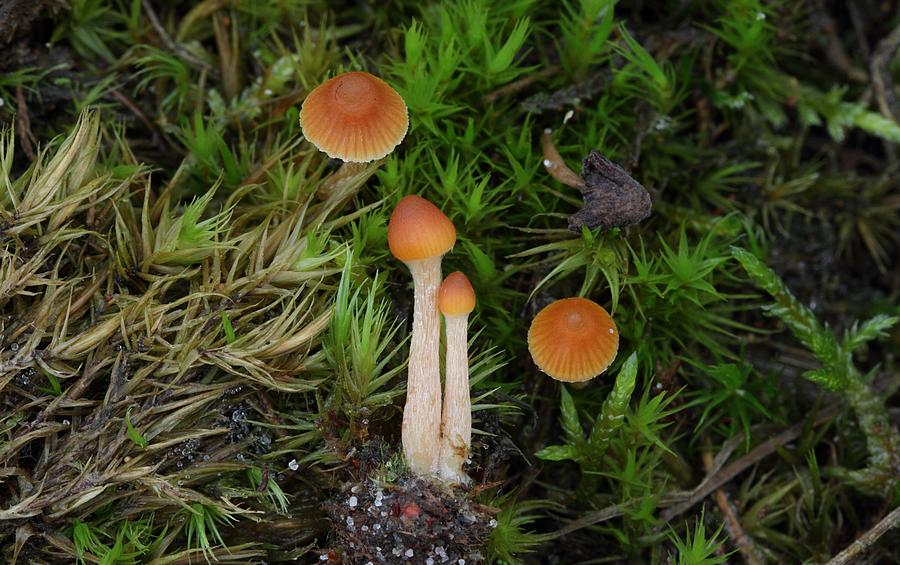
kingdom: Fungi
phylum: Basidiomycota
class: Agaricomycetes
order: Agaricales
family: Hymenogastraceae
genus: Galerina
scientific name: Galerina calyptrata
